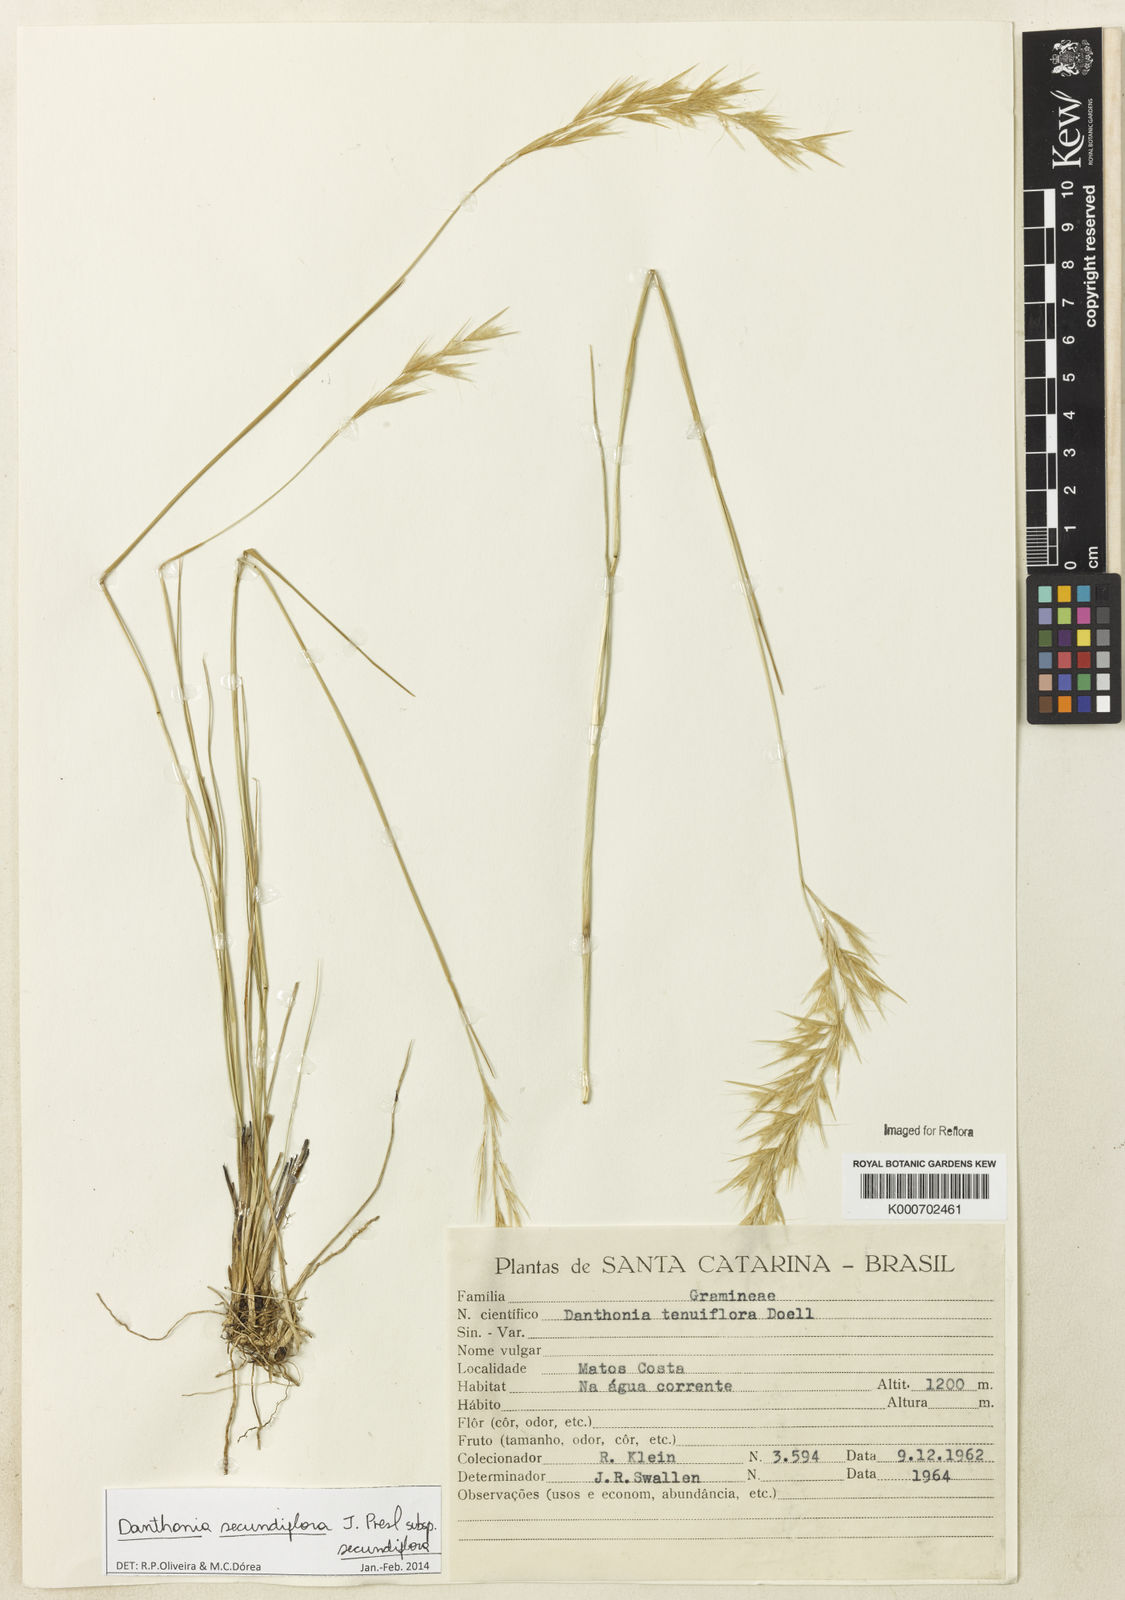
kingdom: Plantae
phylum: Tracheophyta
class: Liliopsida
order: Poales
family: Poaceae
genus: Danthonia
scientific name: Danthonia secundiflora
